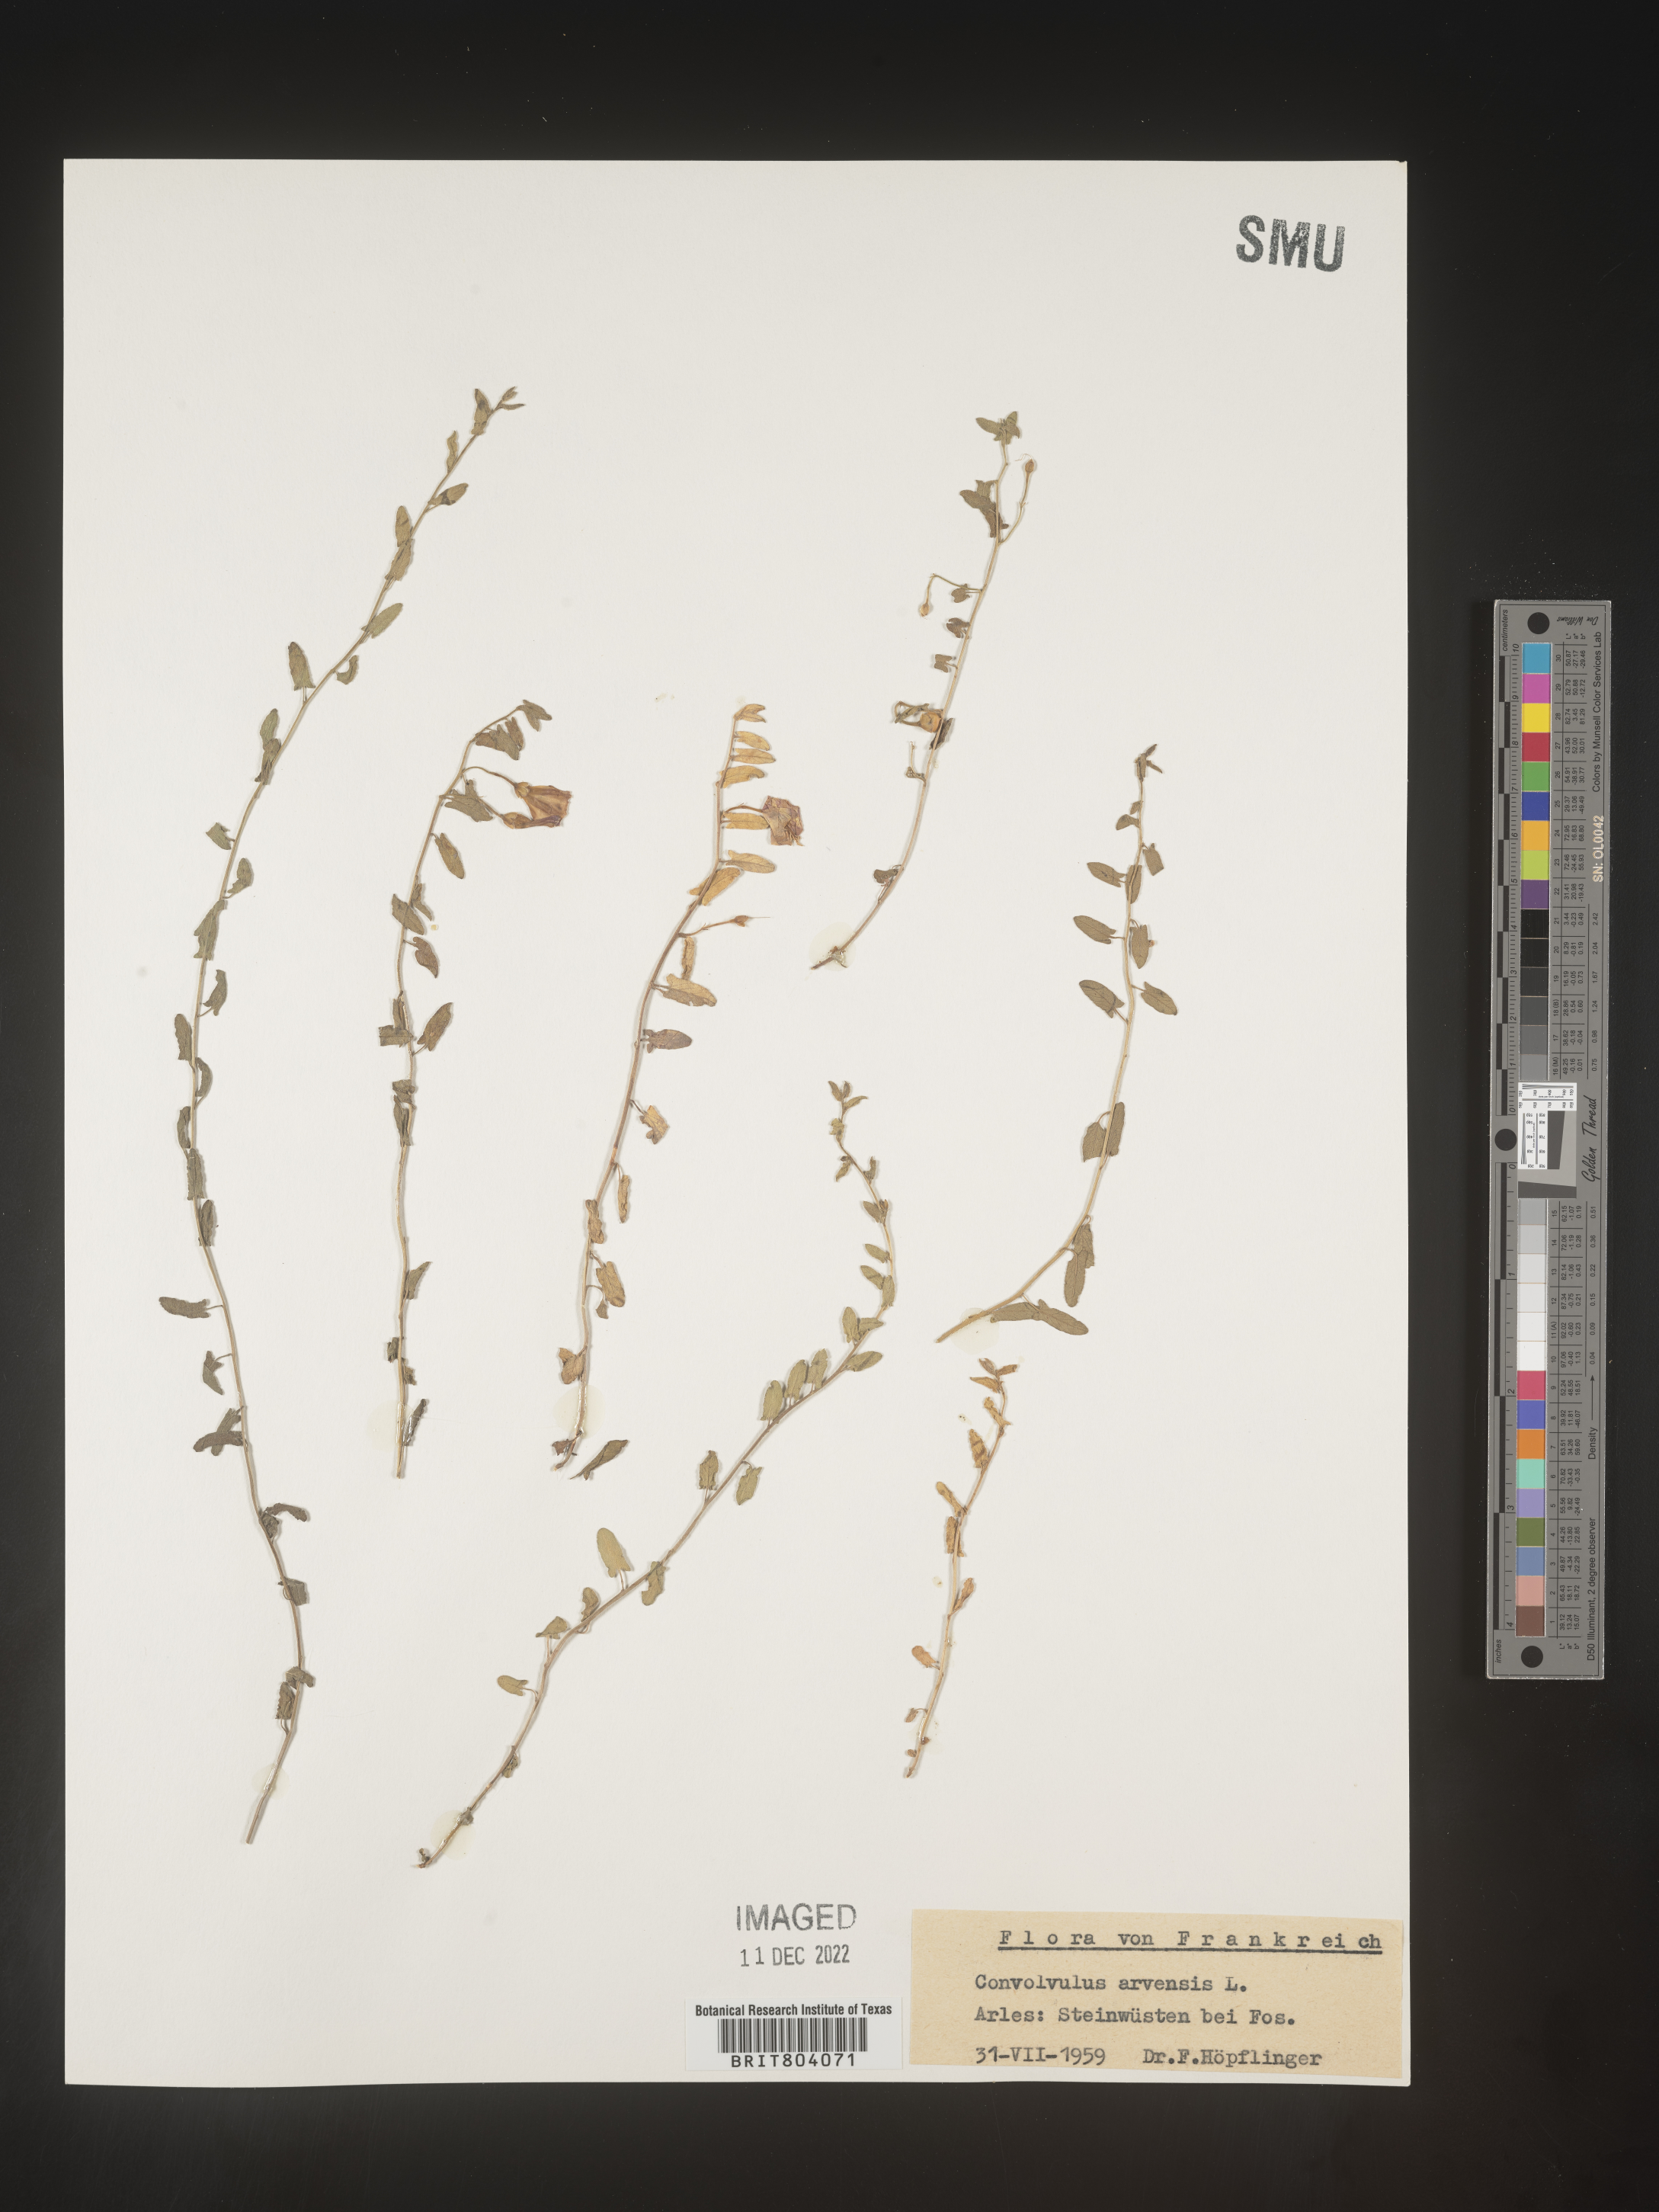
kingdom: Plantae
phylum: Tracheophyta
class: Magnoliopsida
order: Solanales
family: Convolvulaceae
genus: Convolvulus
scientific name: Convolvulus
